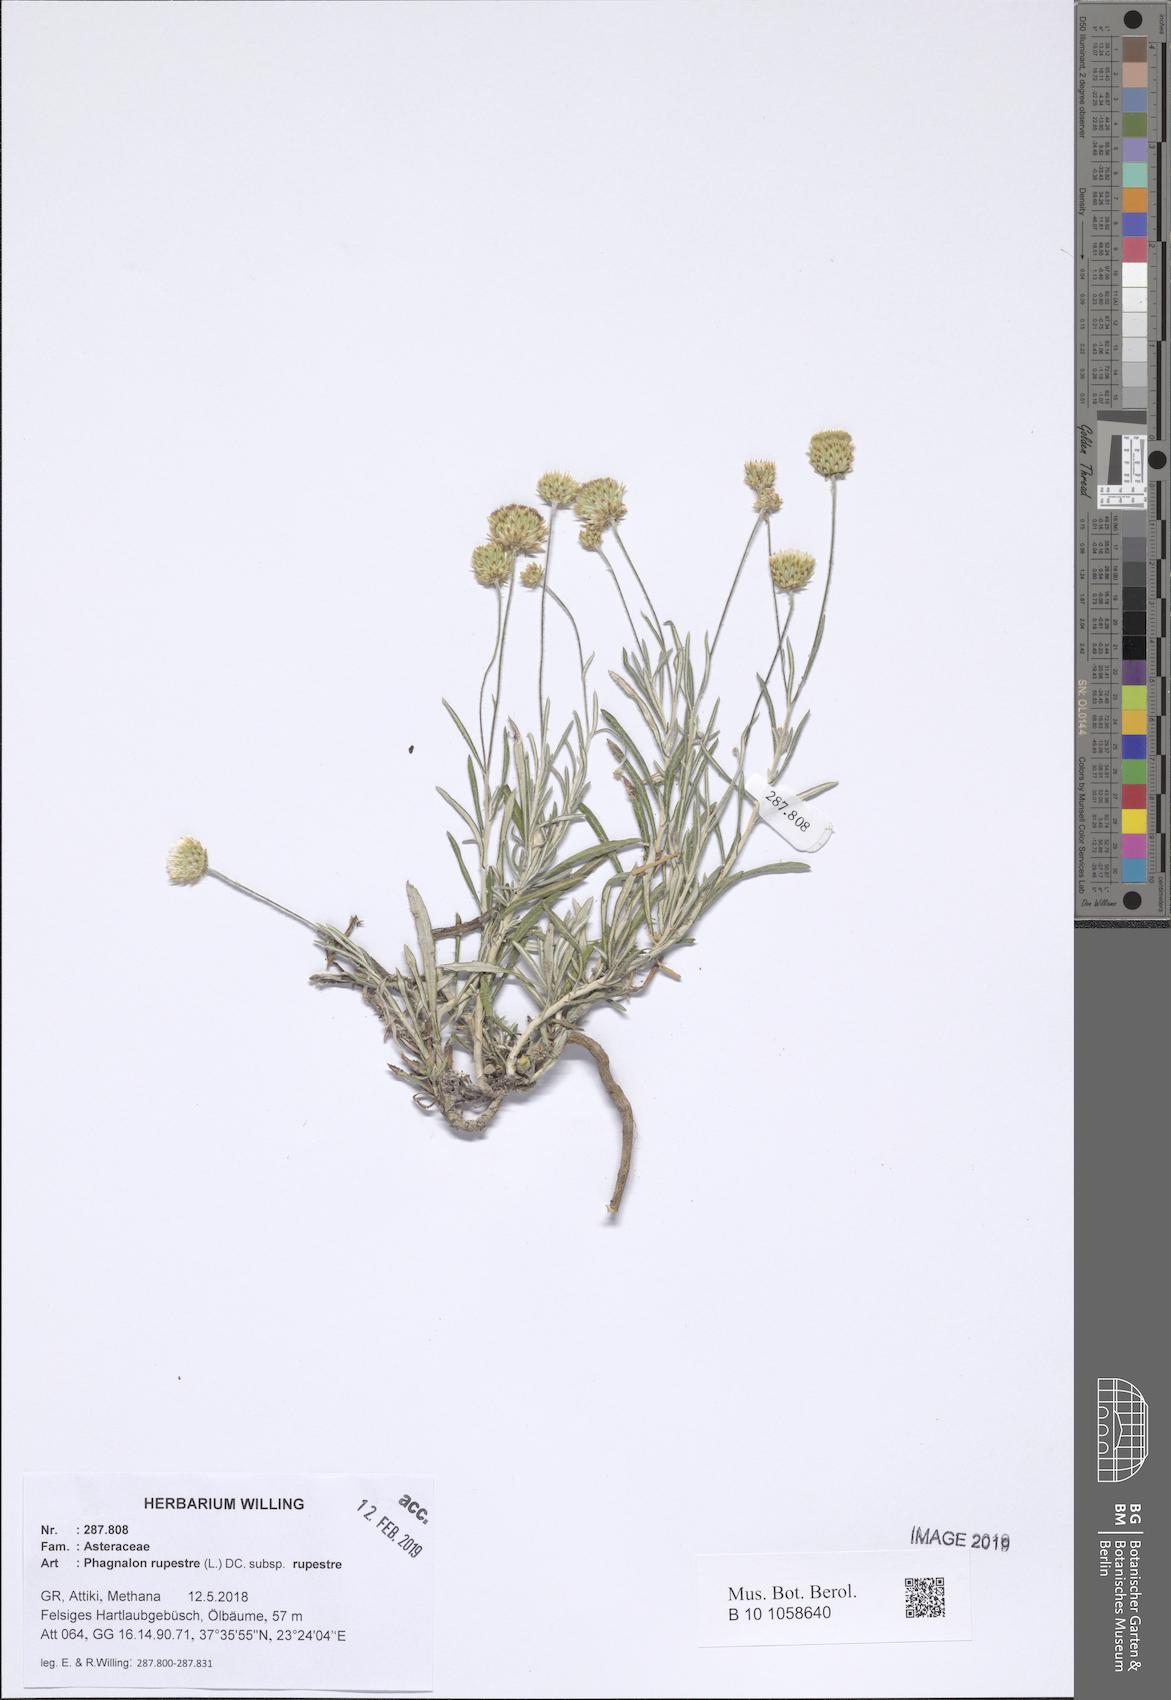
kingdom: Plantae
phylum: Tracheophyta
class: Magnoliopsida
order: Asterales
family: Asteraceae
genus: Phagnalon
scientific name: Phagnalon rupestre
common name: Rock phagnalon
